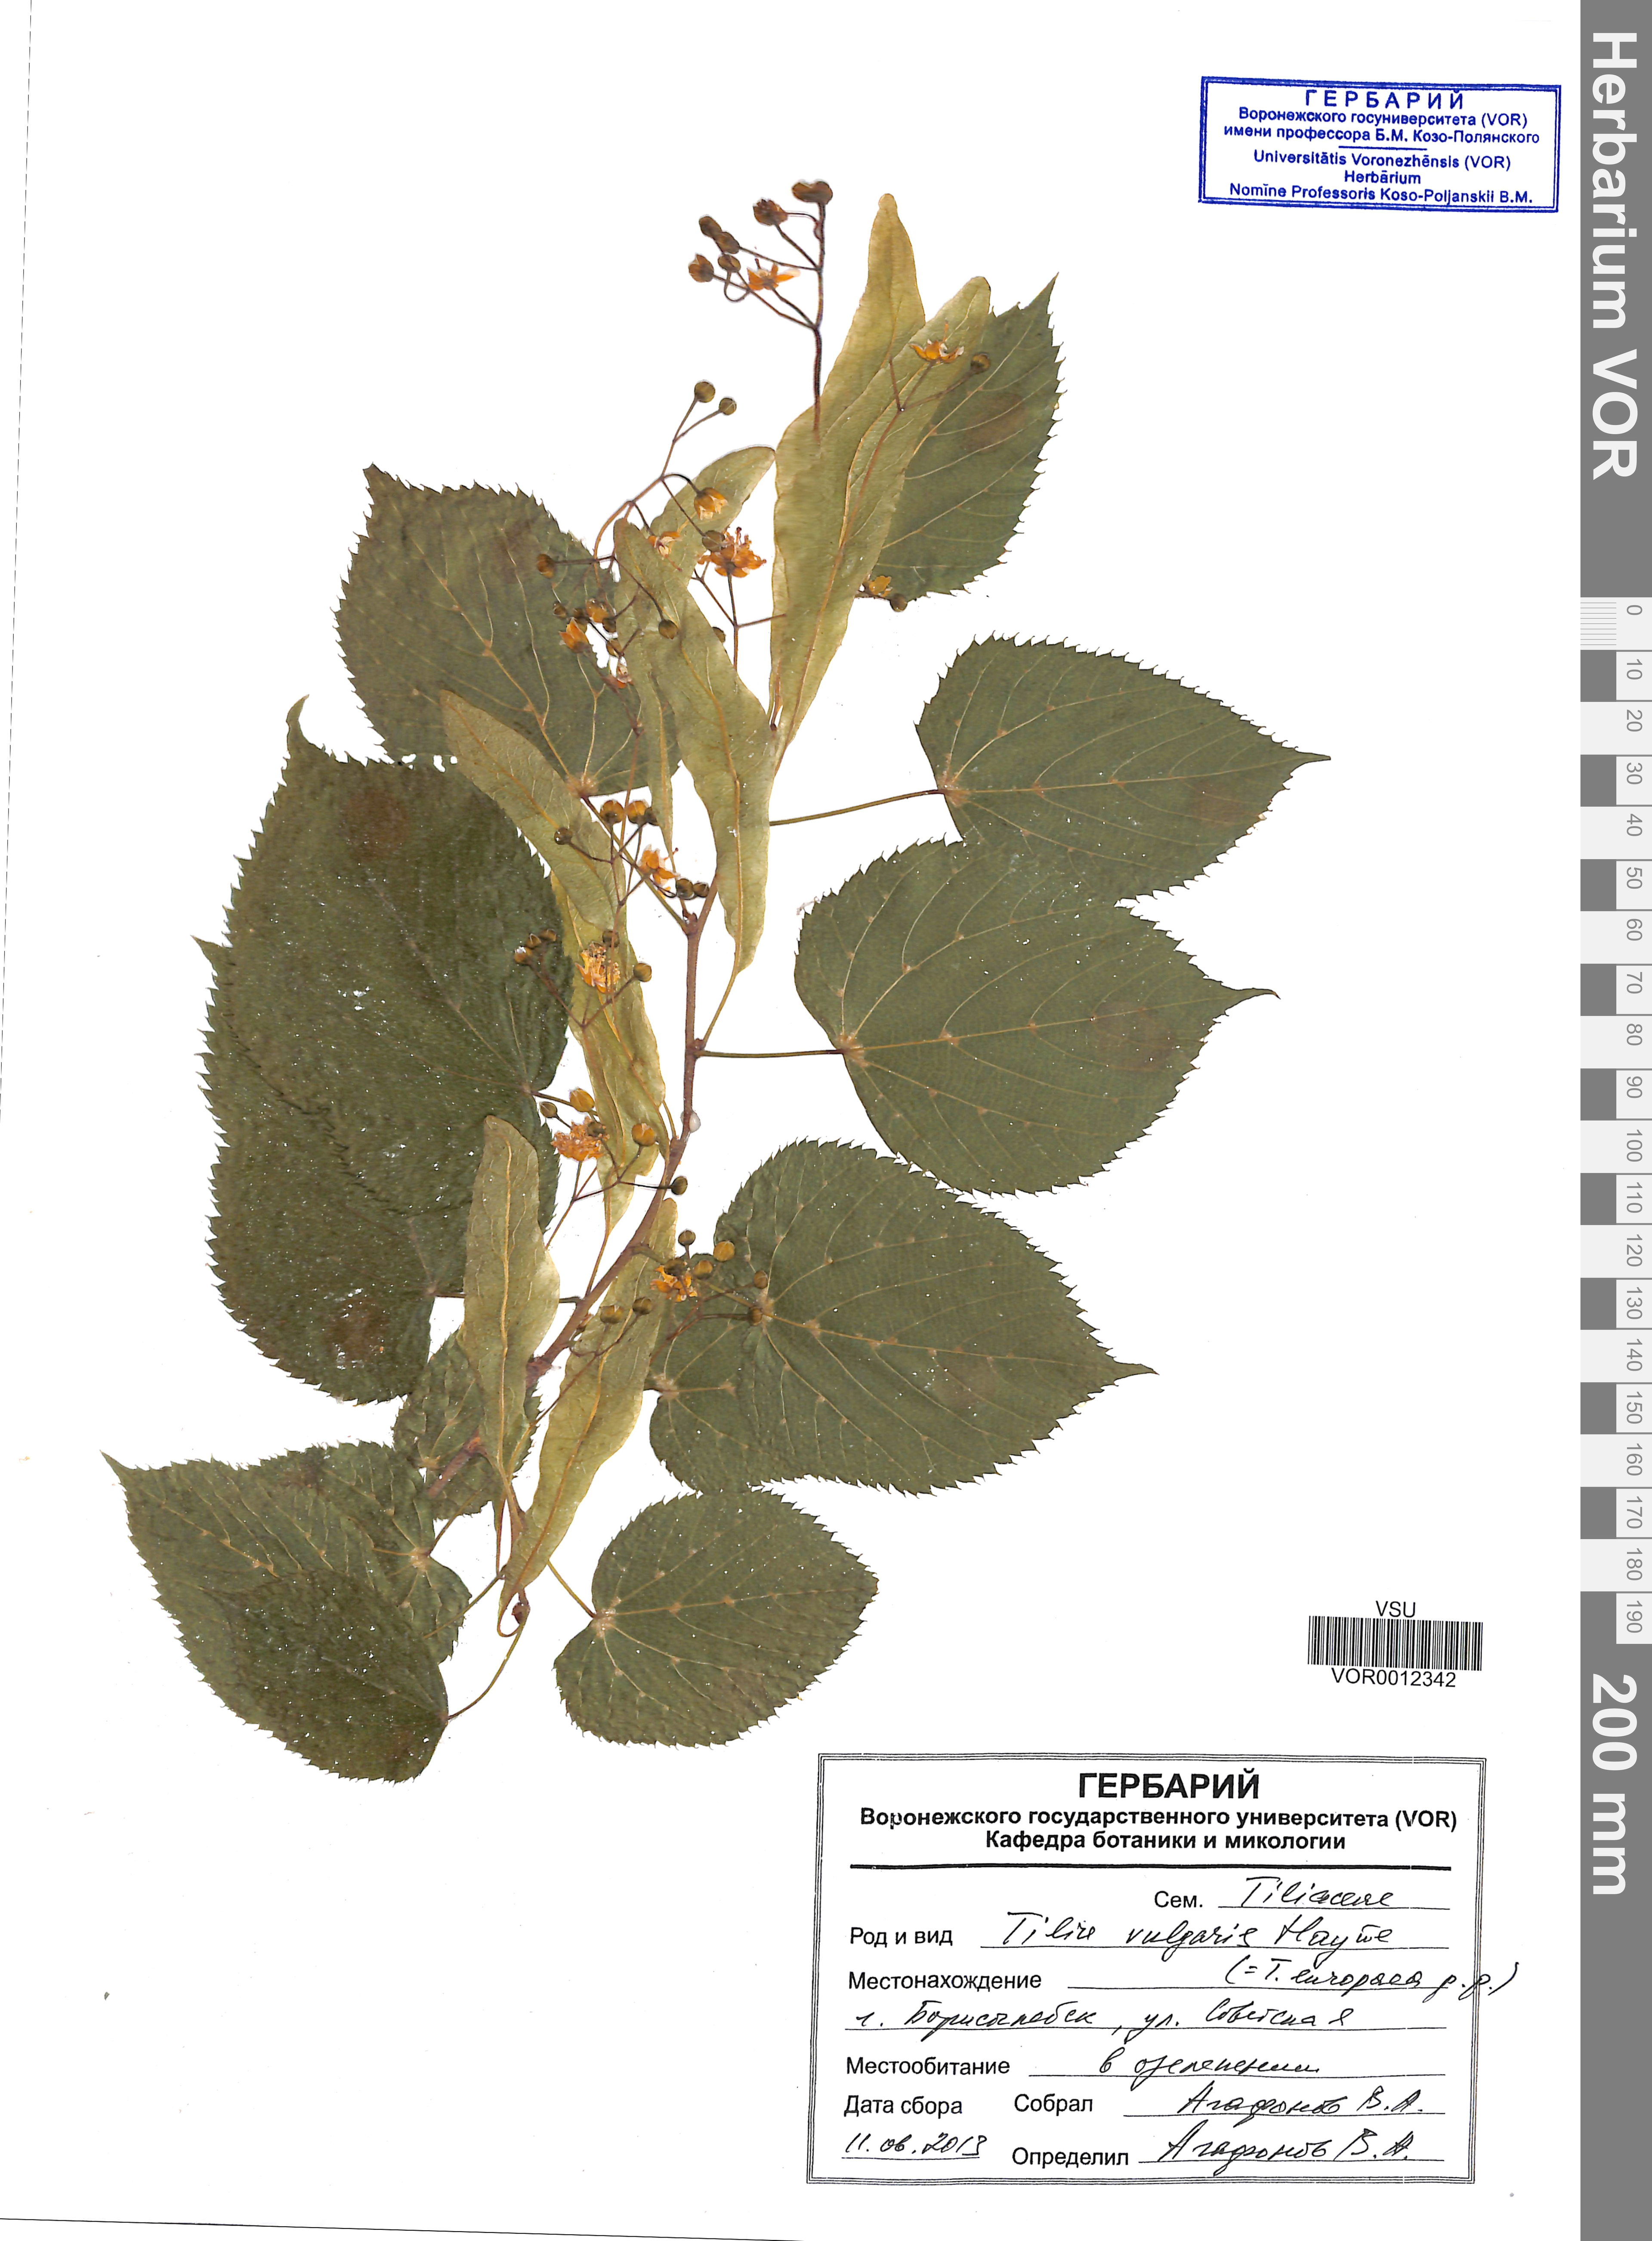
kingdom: Plantae
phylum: Tracheophyta
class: Magnoliopsida
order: Malvales
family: Malvaceae
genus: Tilia
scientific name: Tilia cordata
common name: Small-leaved lime
